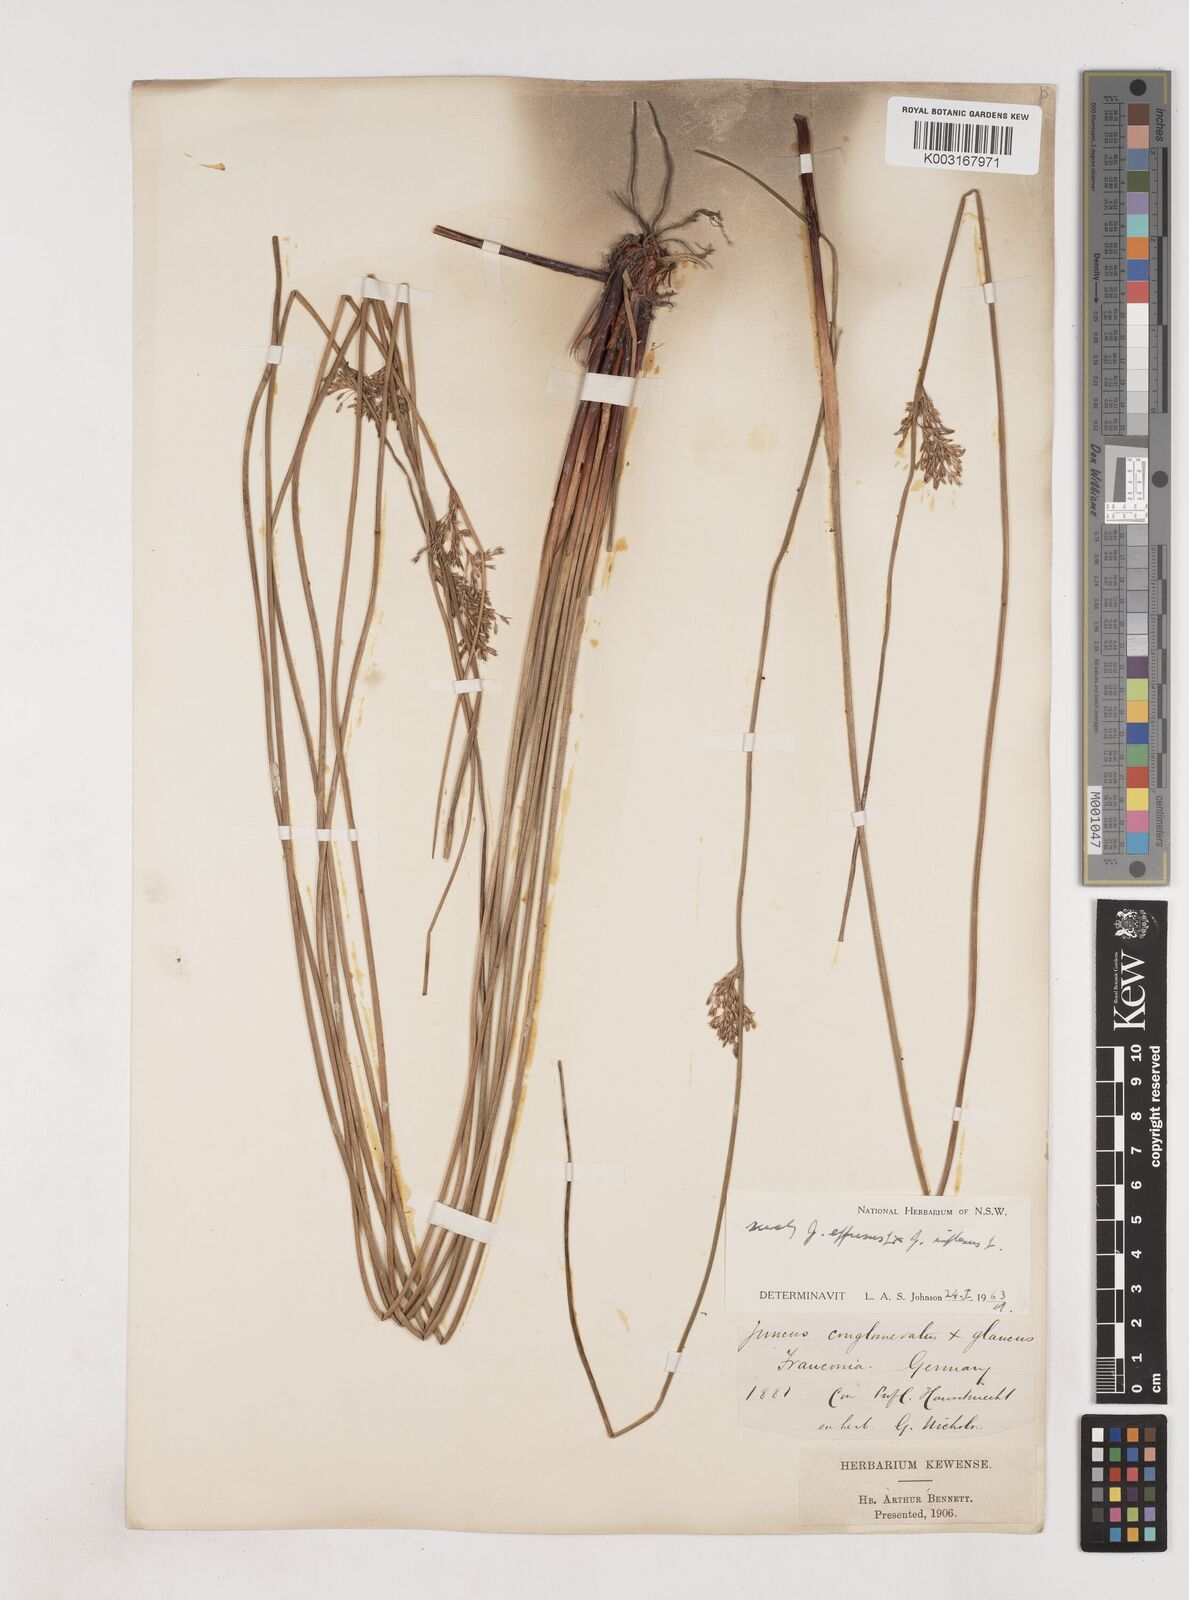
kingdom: Plantae
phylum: Tracheophyta
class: Liliopsida
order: Poales
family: Juncaceae
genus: Juncus
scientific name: Juncus effusus
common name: Soft rush
